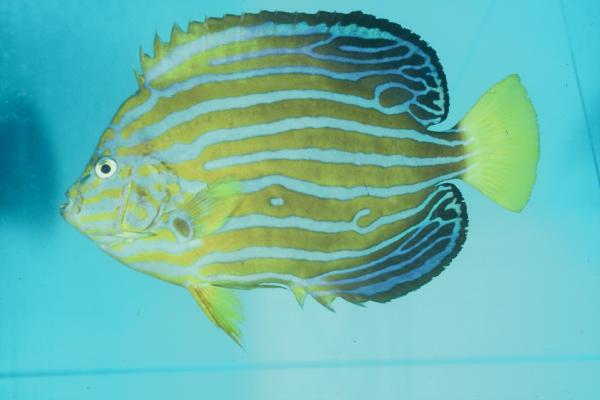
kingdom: Animalia
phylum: Chordata
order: Perciformes
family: Pomacanthidae
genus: Chaetodontoplus
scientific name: Chaetodontoplus septentrionalis
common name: Bluestriped angelfish
